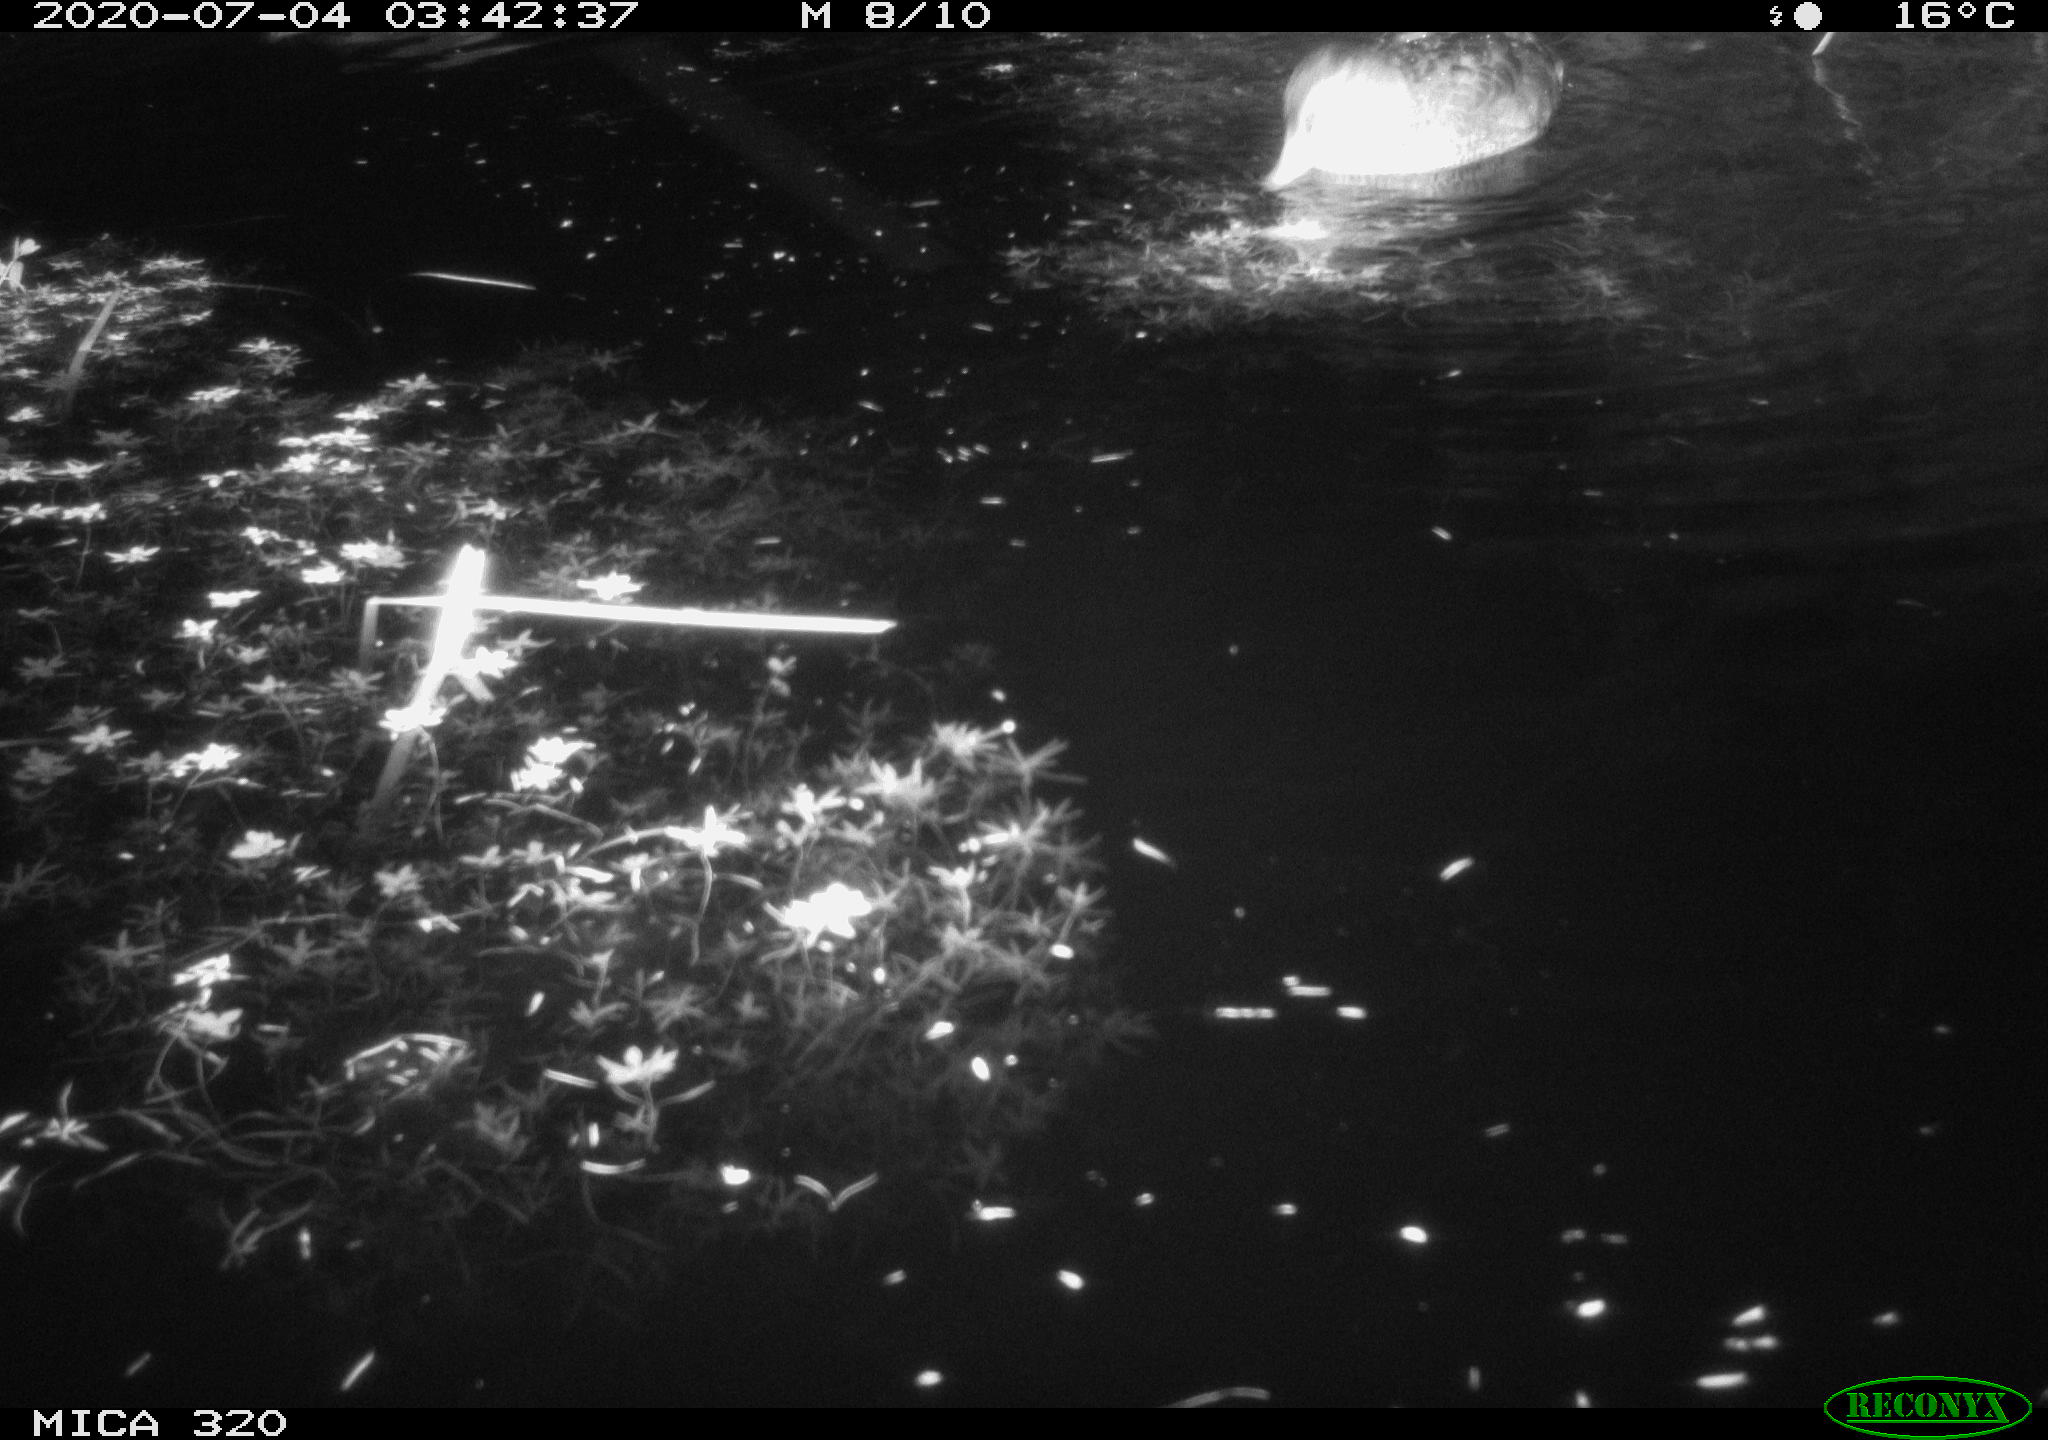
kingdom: Animalia
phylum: Chordata
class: Aves
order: Anseriformes
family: Anatidae
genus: Anas
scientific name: Anas platyrhynchos
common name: Mallard
